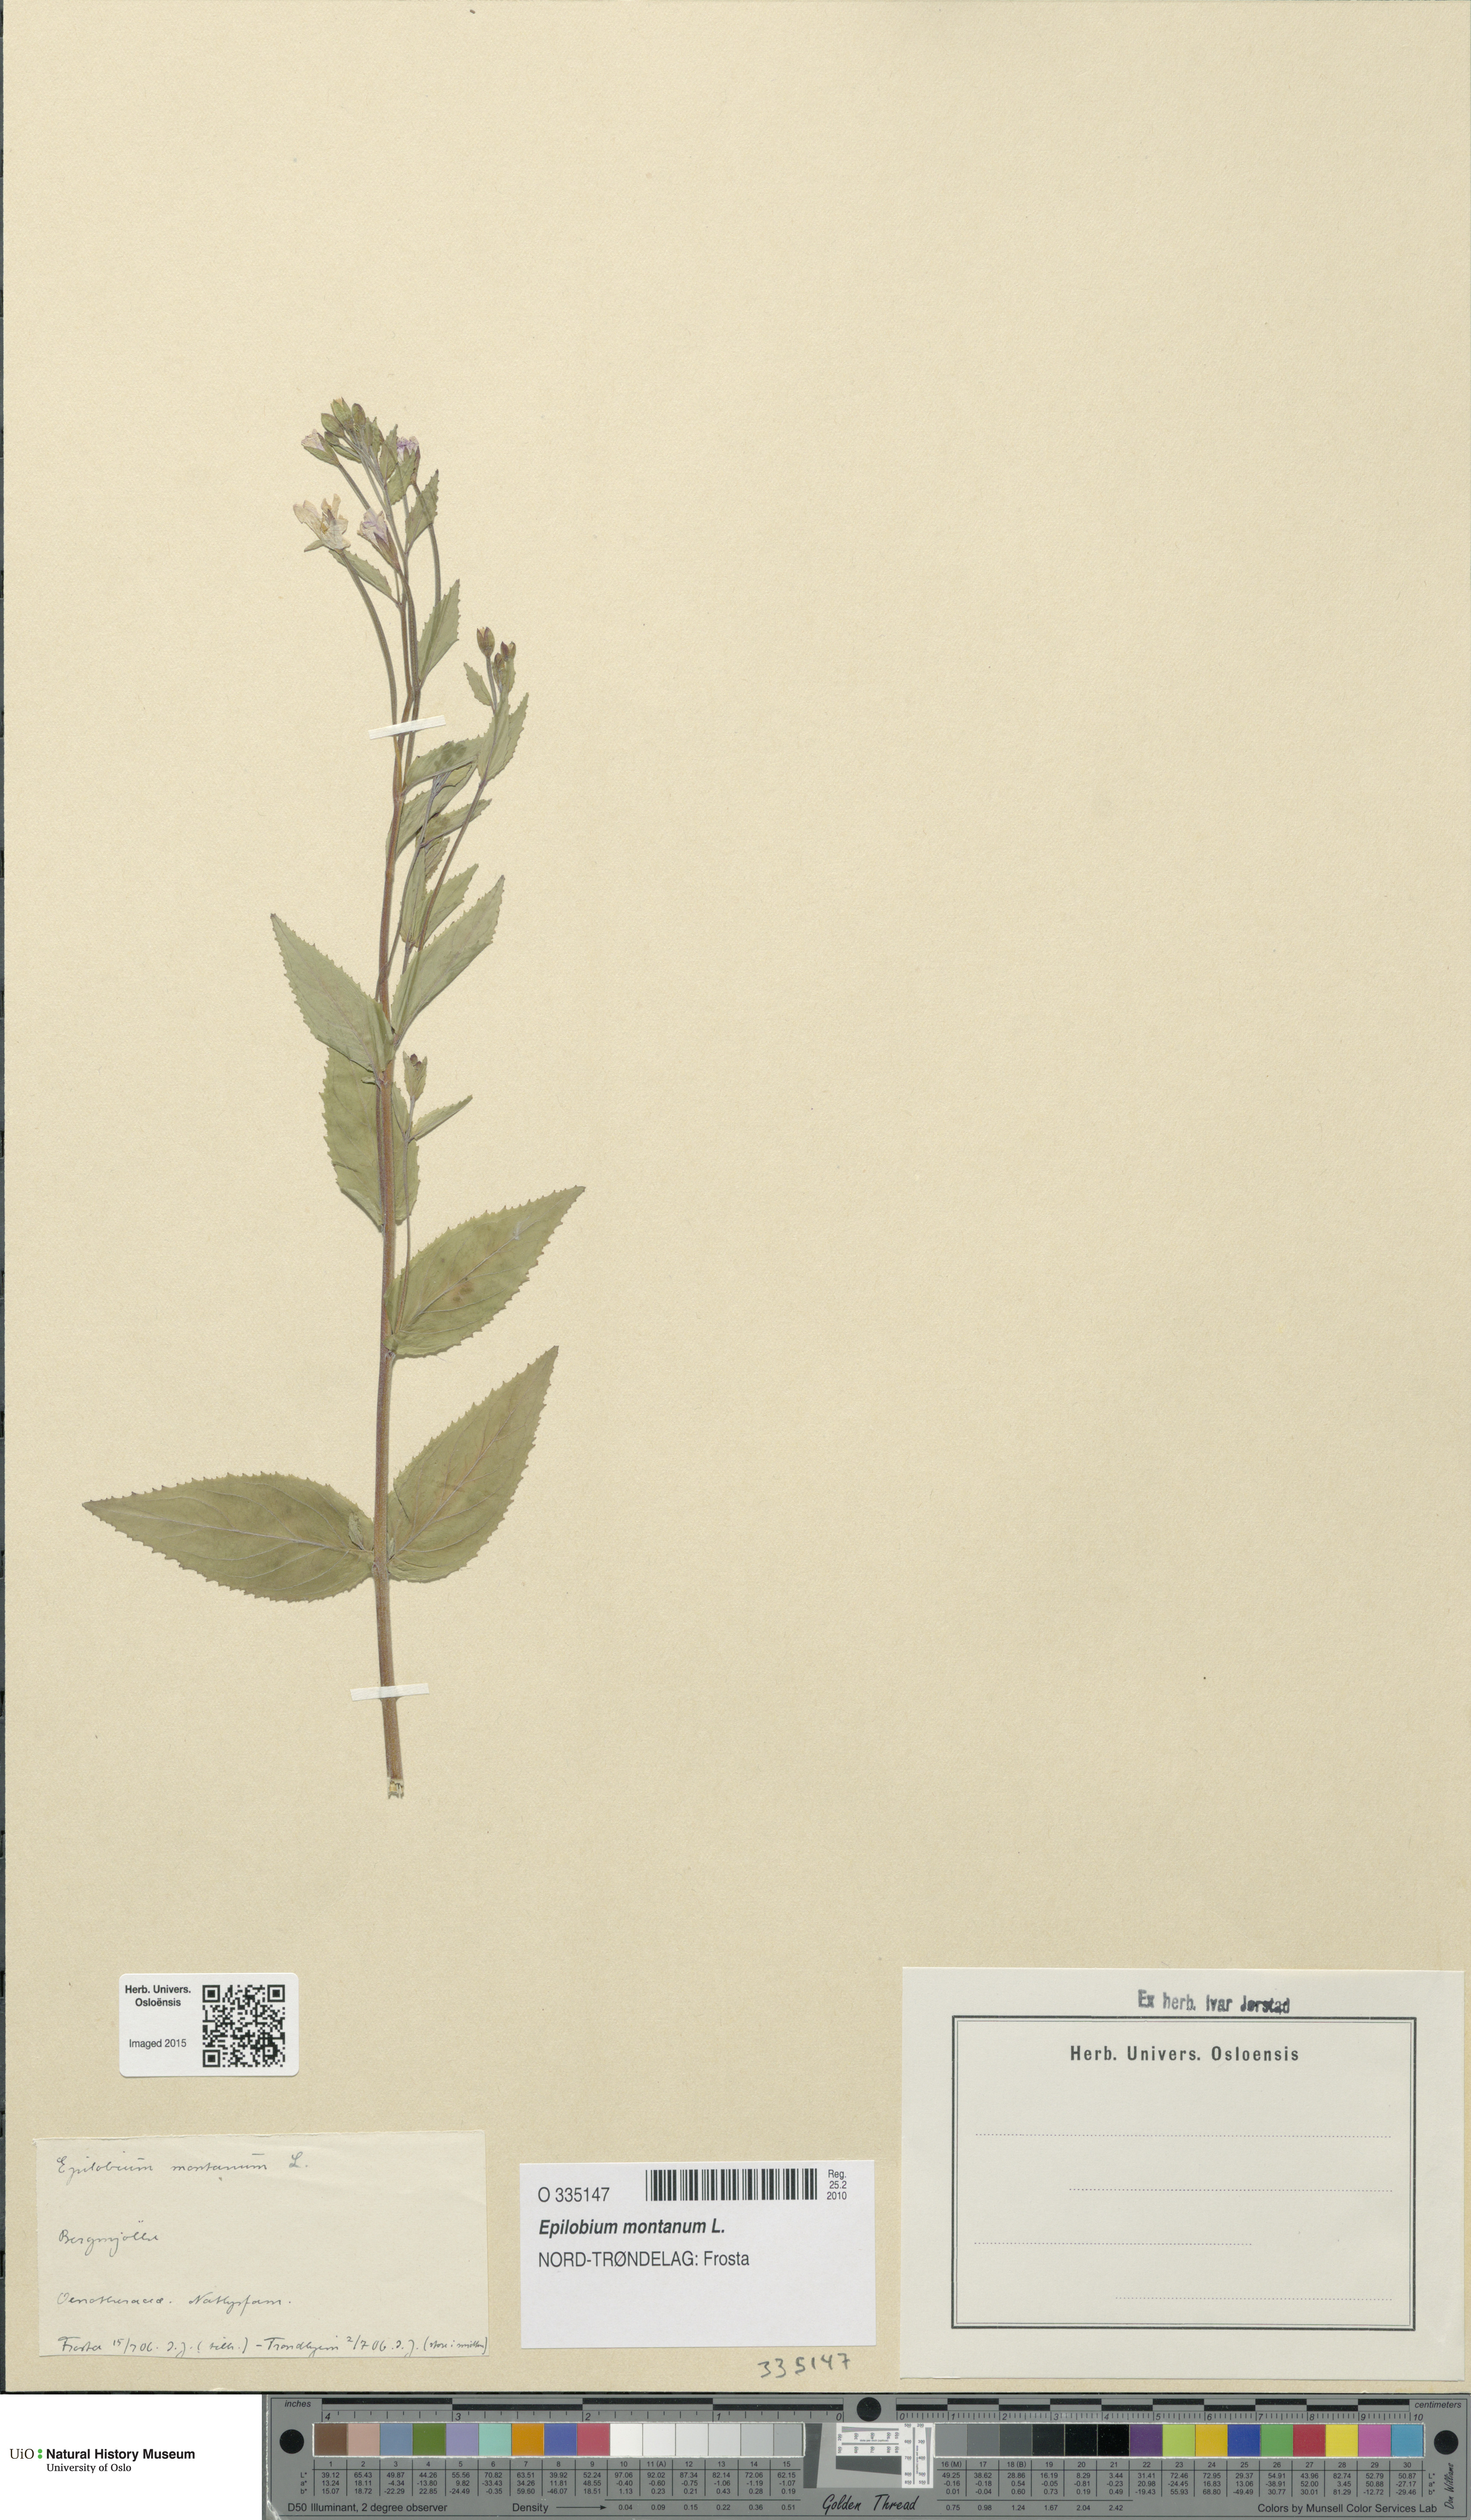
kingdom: Plantae
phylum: Tracheophyta
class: Magnoliopsida
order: Myrtales
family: Onagraceae
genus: Epilobium
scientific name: Epilobium montanum
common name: Broad-leaved willowherb
